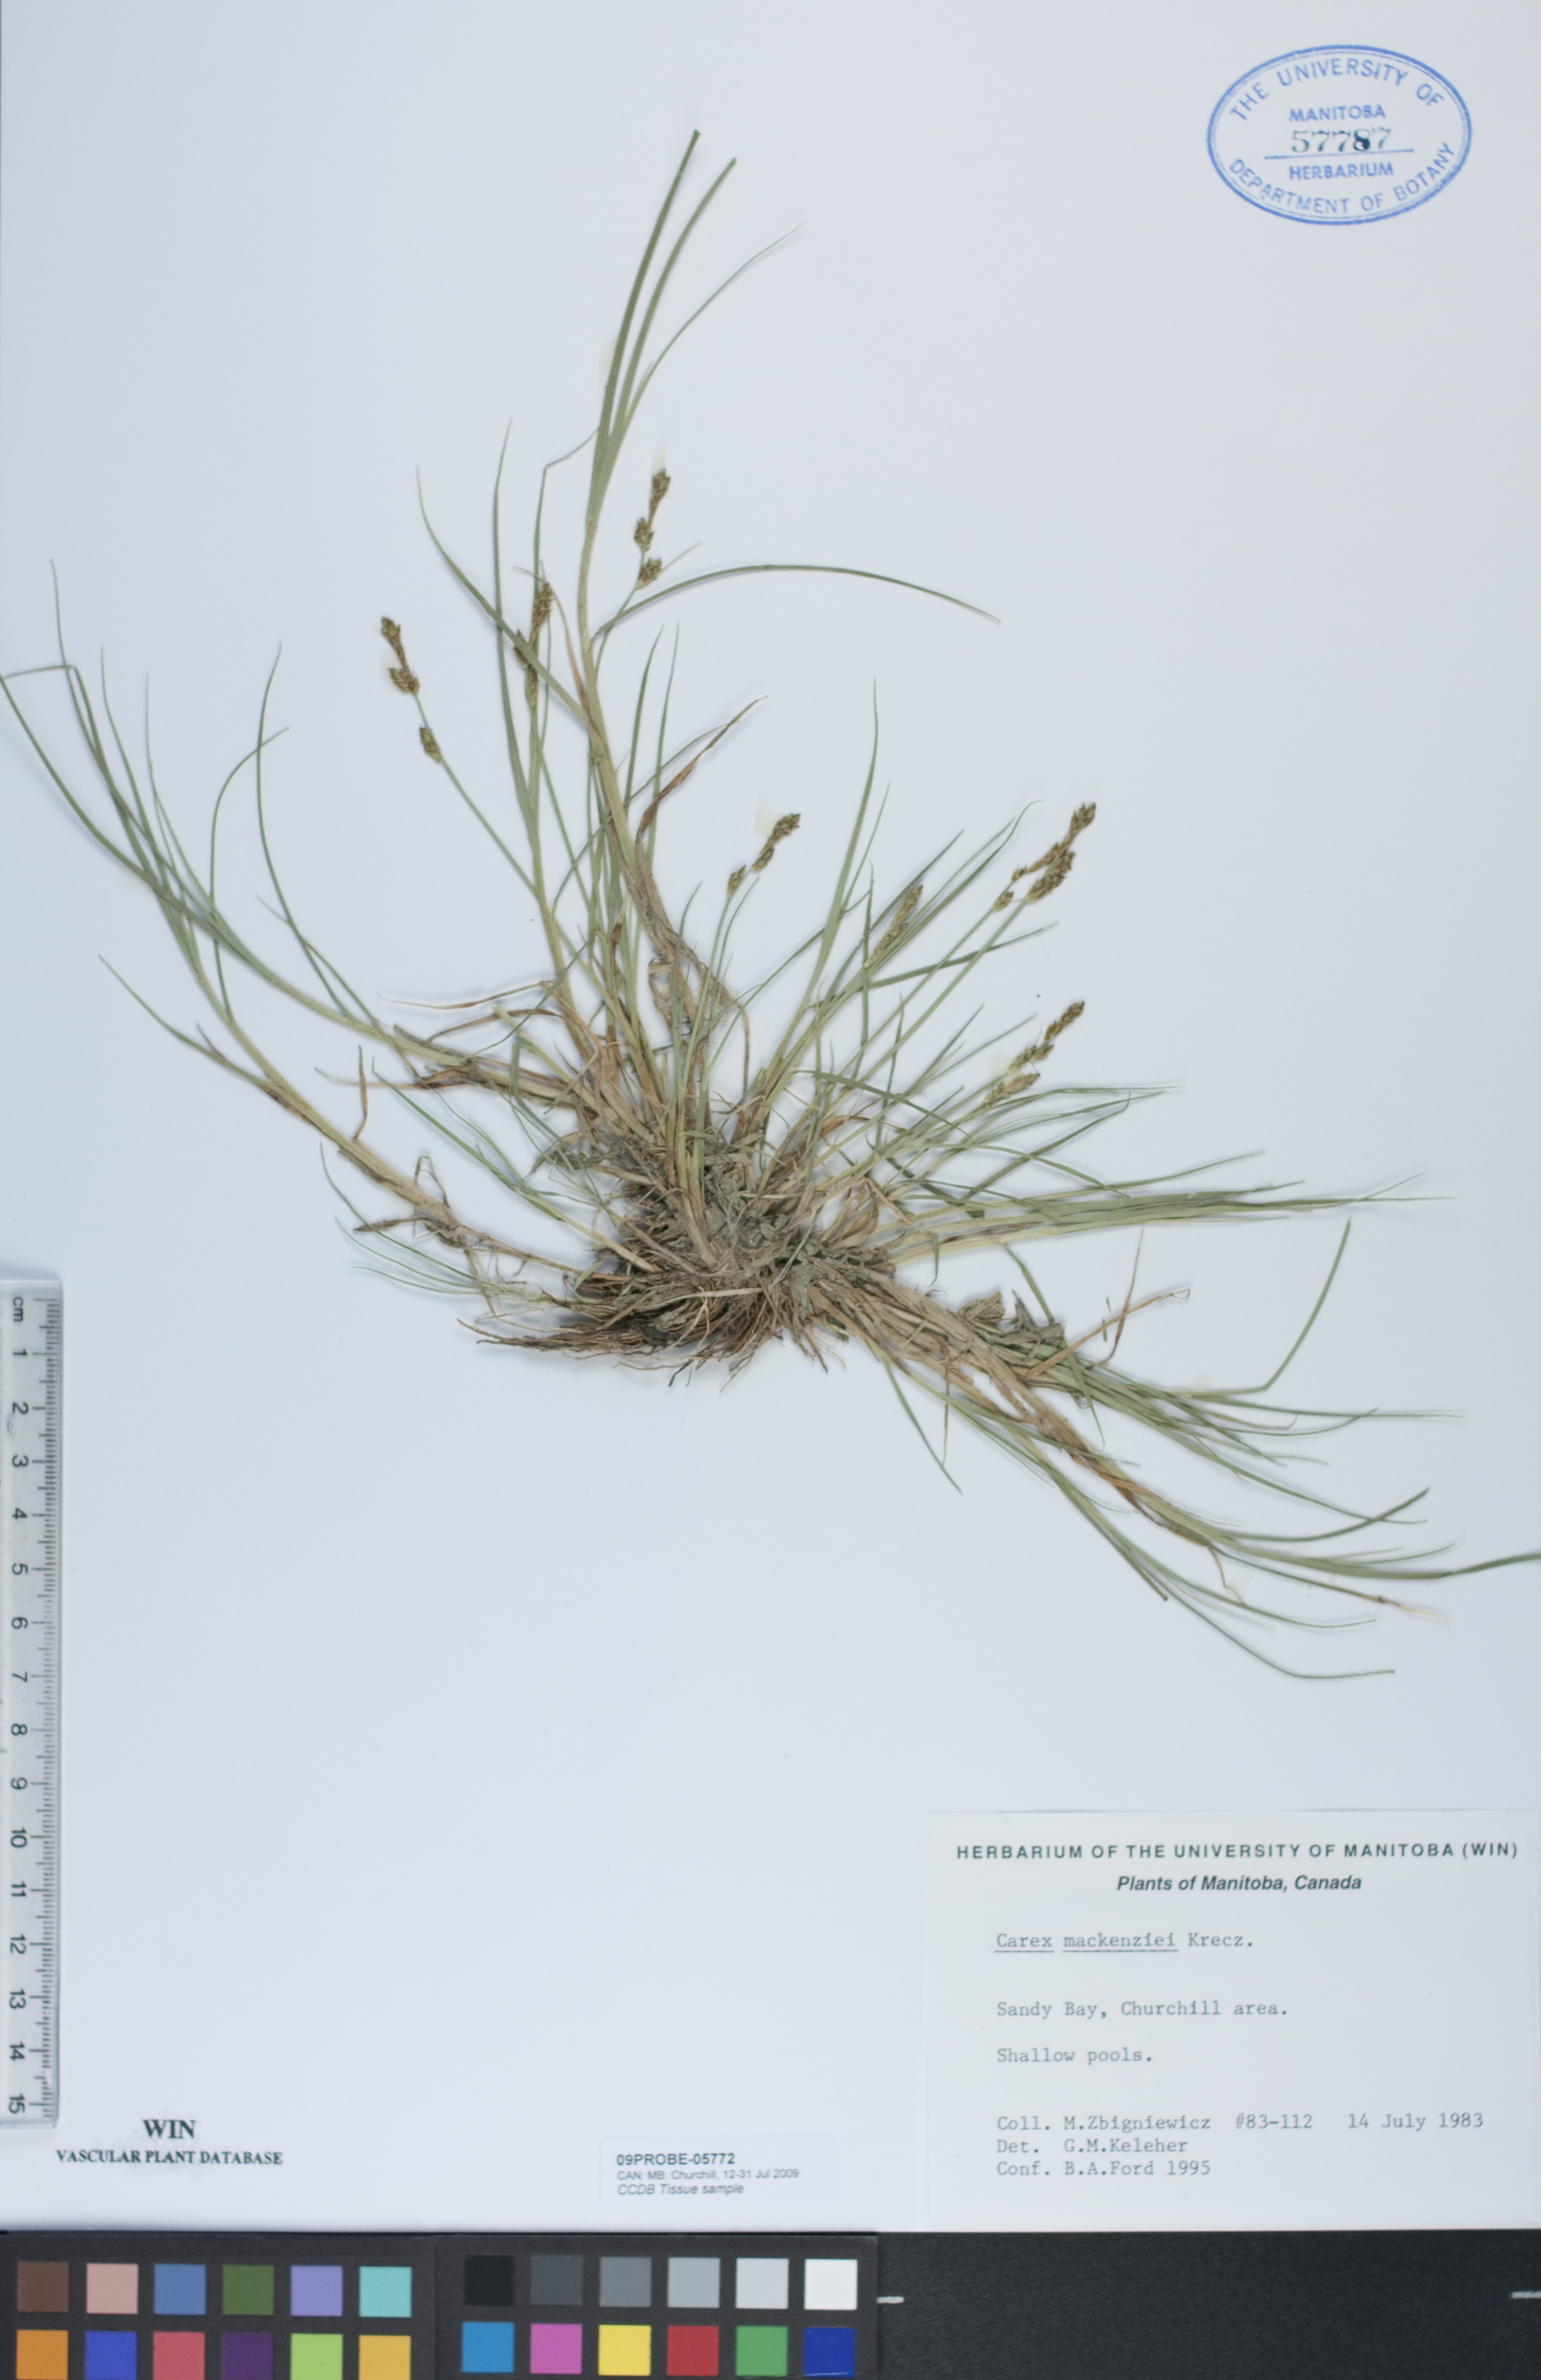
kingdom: Plantae
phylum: Tracheophyta
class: Liliopsida
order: Poales
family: Cyperaceae
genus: Carex
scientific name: Carex mackenziei
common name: Mackenzie's sedge
